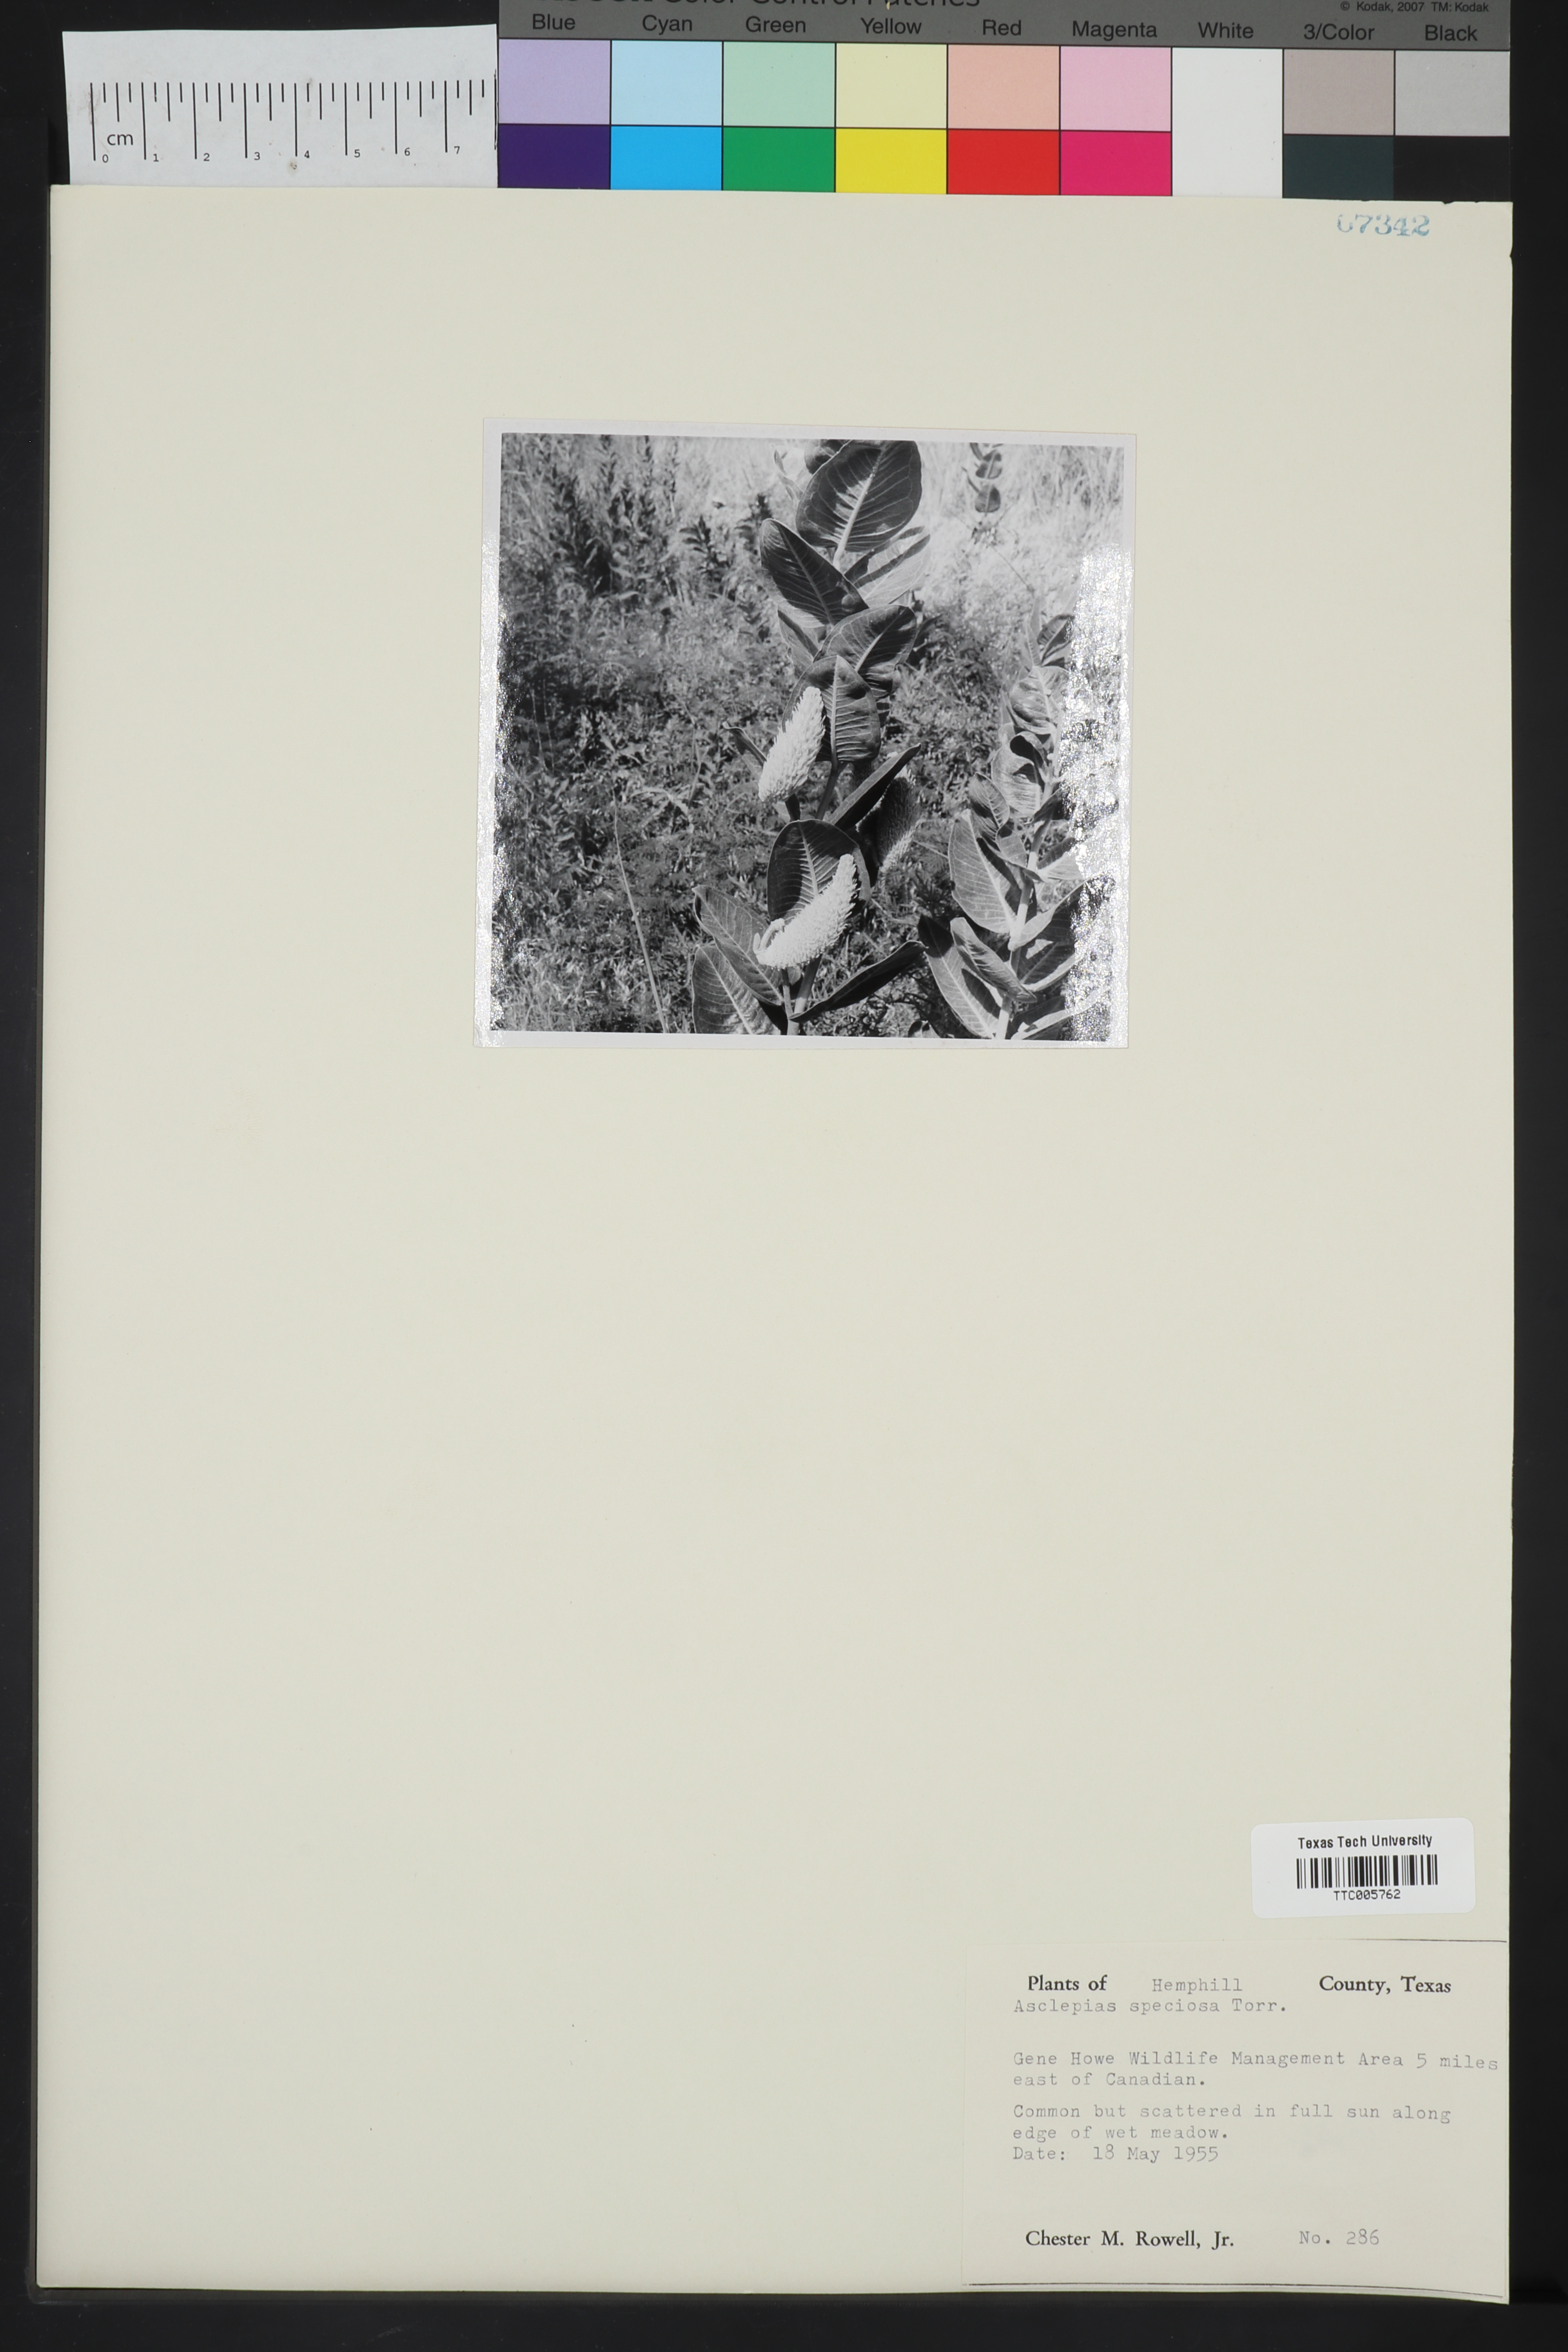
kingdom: Plantae
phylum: Tracheophyta
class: Magnoliopsida
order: Gentianales
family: Apocynaceae
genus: Asclepias
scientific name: Asclepias speciosa
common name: Showy milkweed
